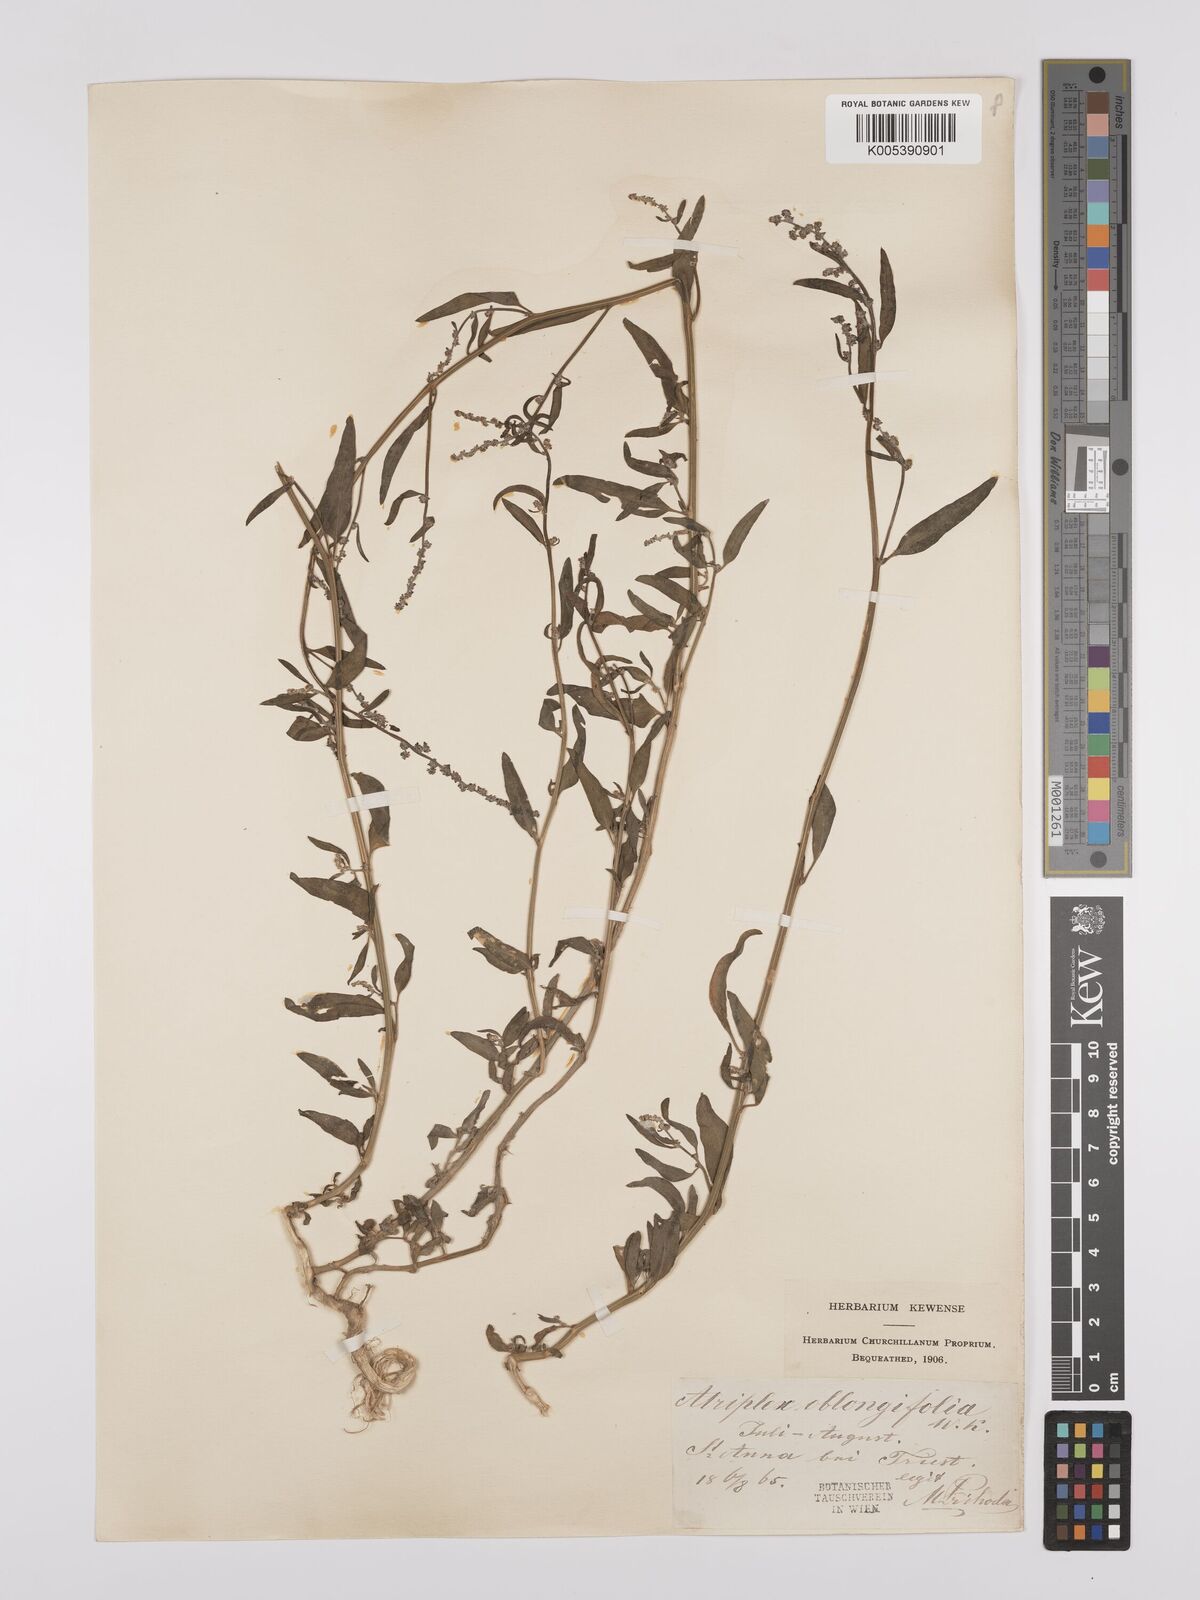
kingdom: Plantae
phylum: Tracheophyta
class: Magnoliopsida
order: Caryophyllales
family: Amaranthaceae
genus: Atriplex
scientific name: Atriplex
